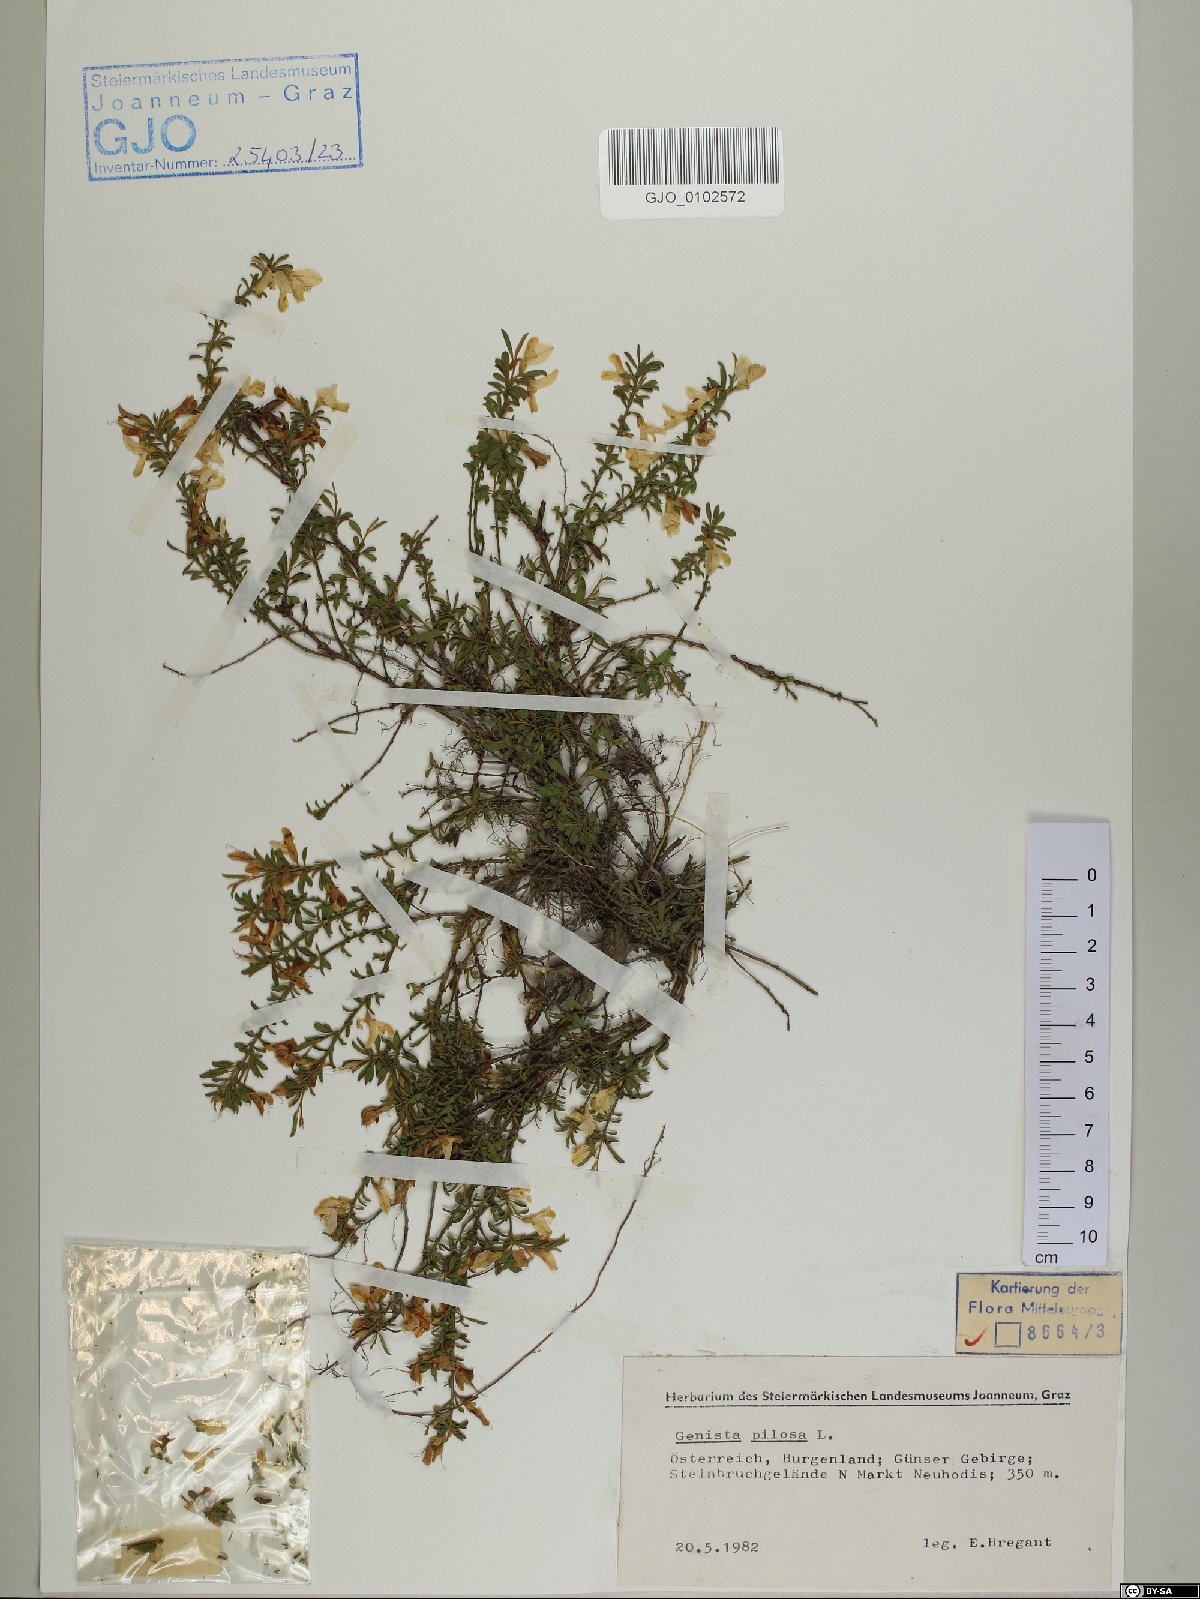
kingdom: Plantae
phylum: Tracheophyta
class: Magnoliopsida
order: Fabales
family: Fabaceae
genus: Genista
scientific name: Genista pilosa
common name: Hairy greenweed
